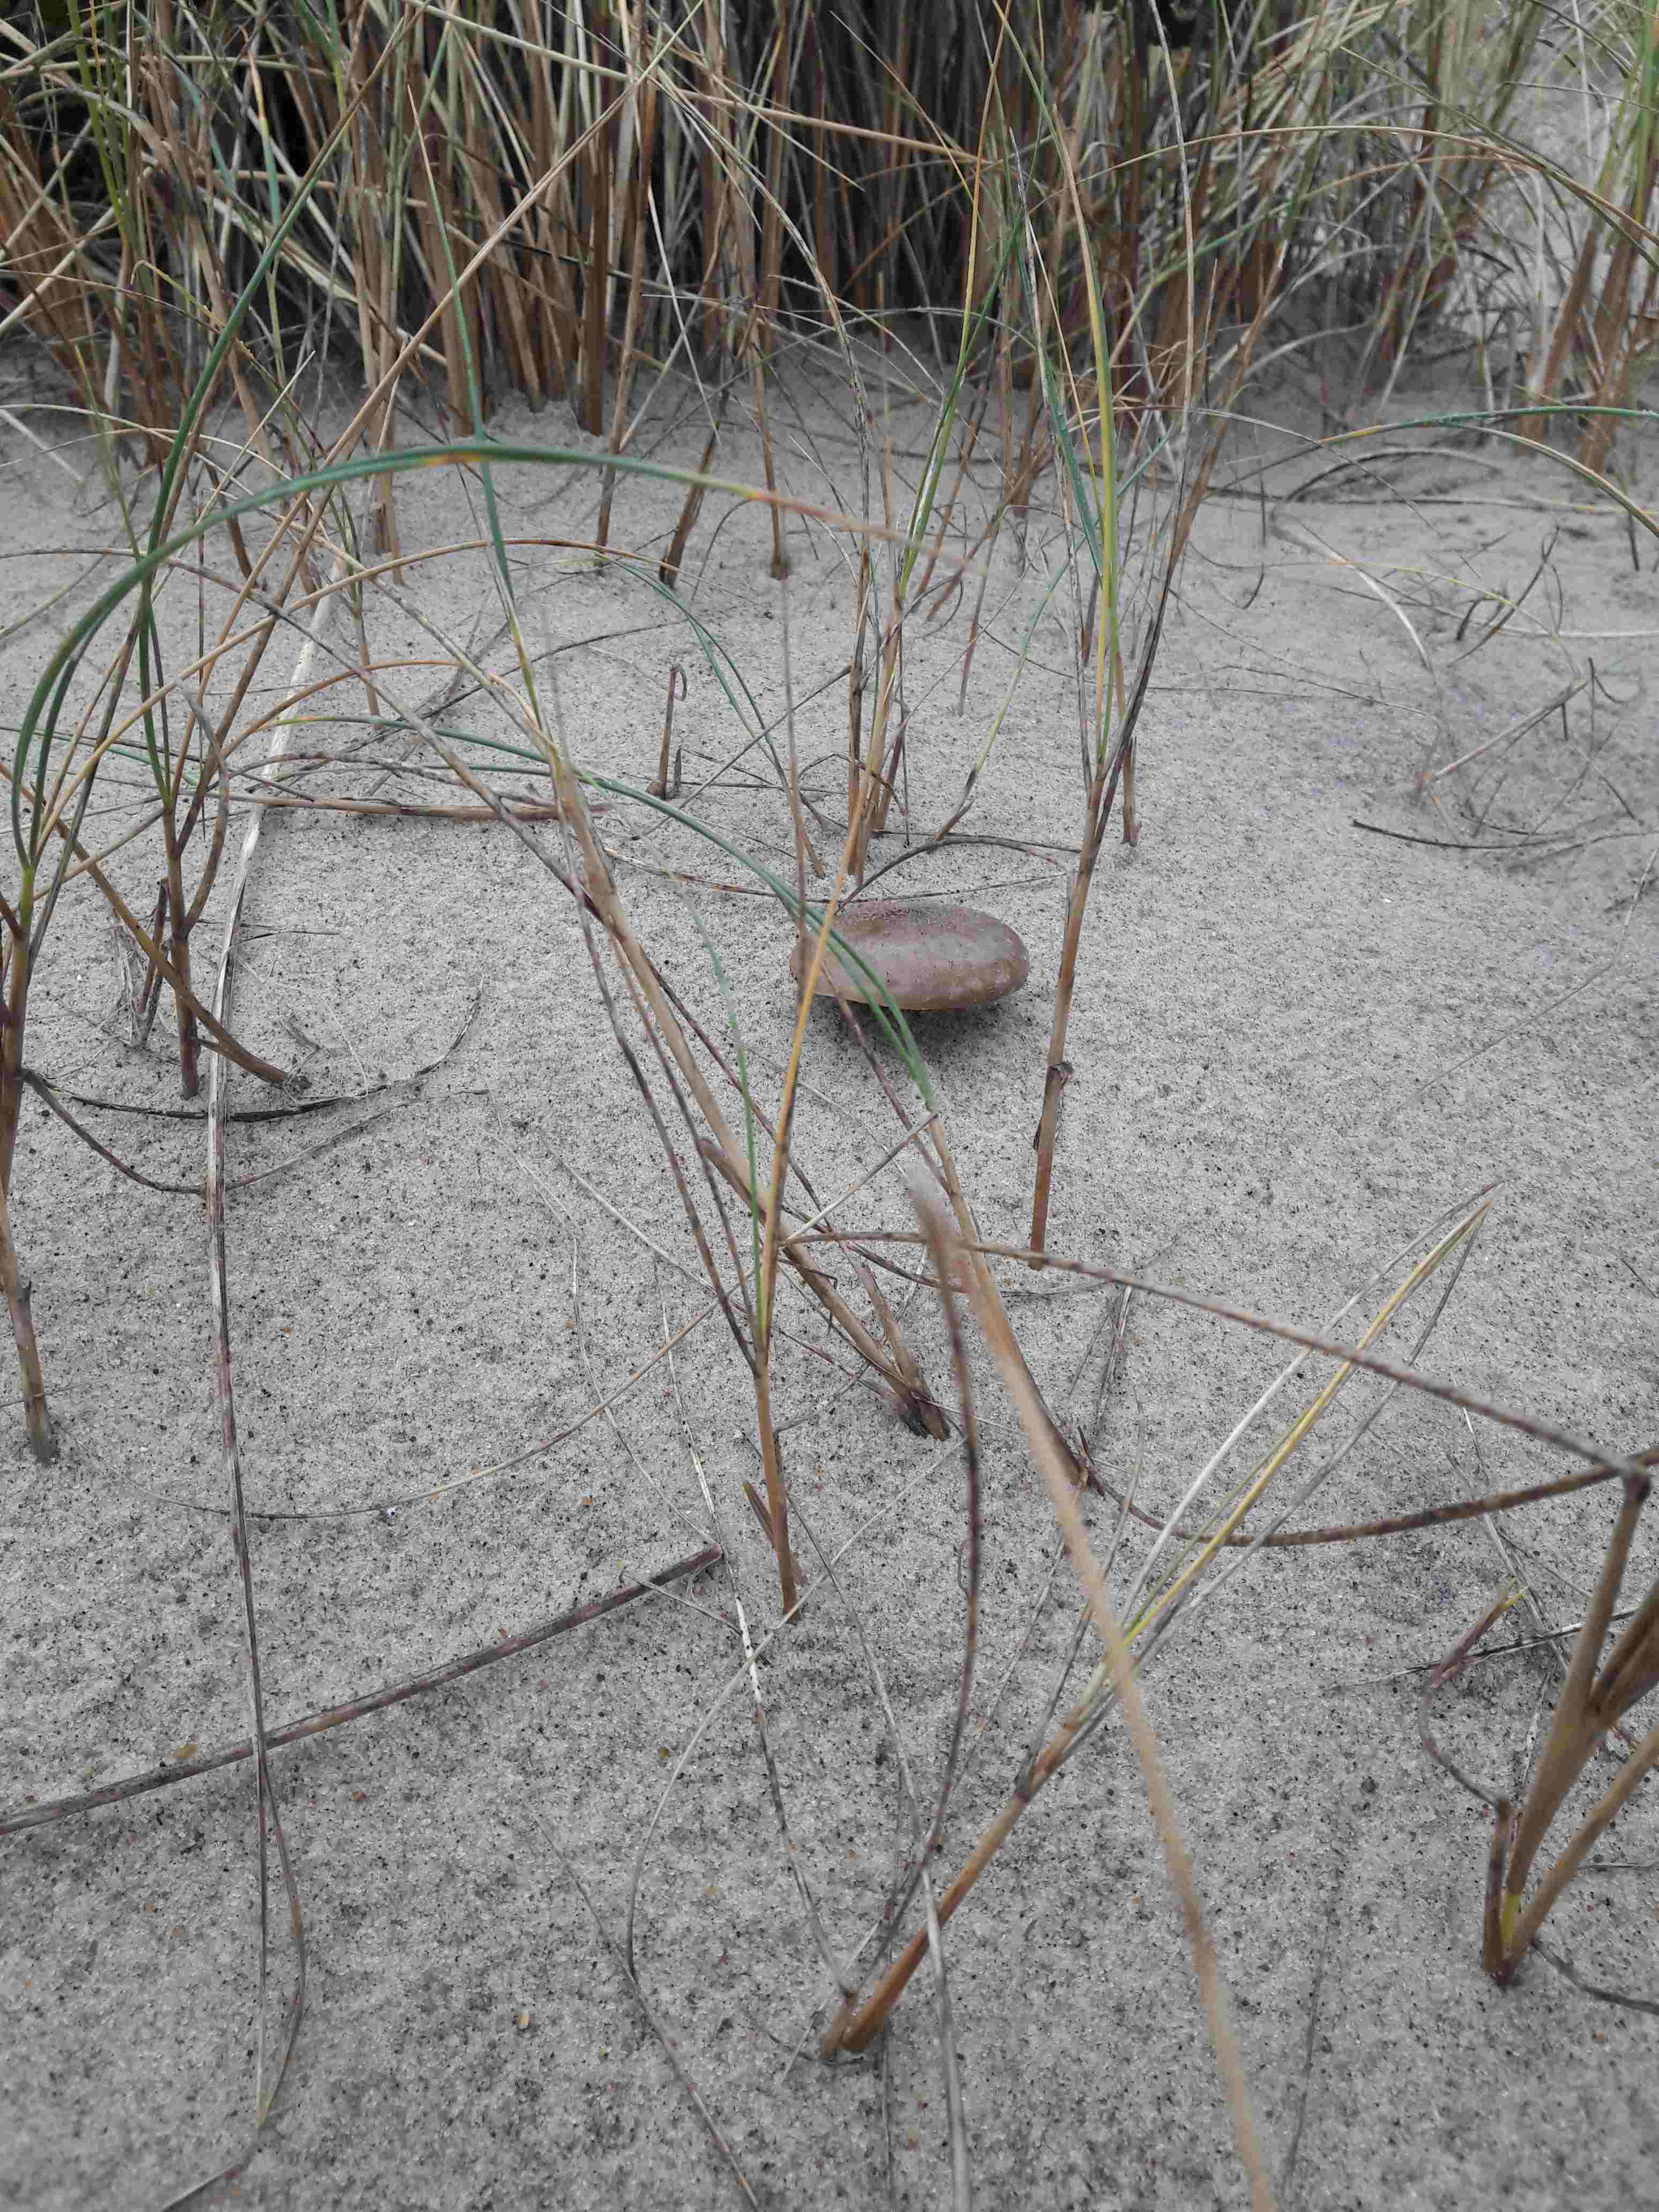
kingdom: Fungi
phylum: Basidiomycota
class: Agaricomycetes
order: Agaricales
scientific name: Agaricales
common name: champignonordenen
